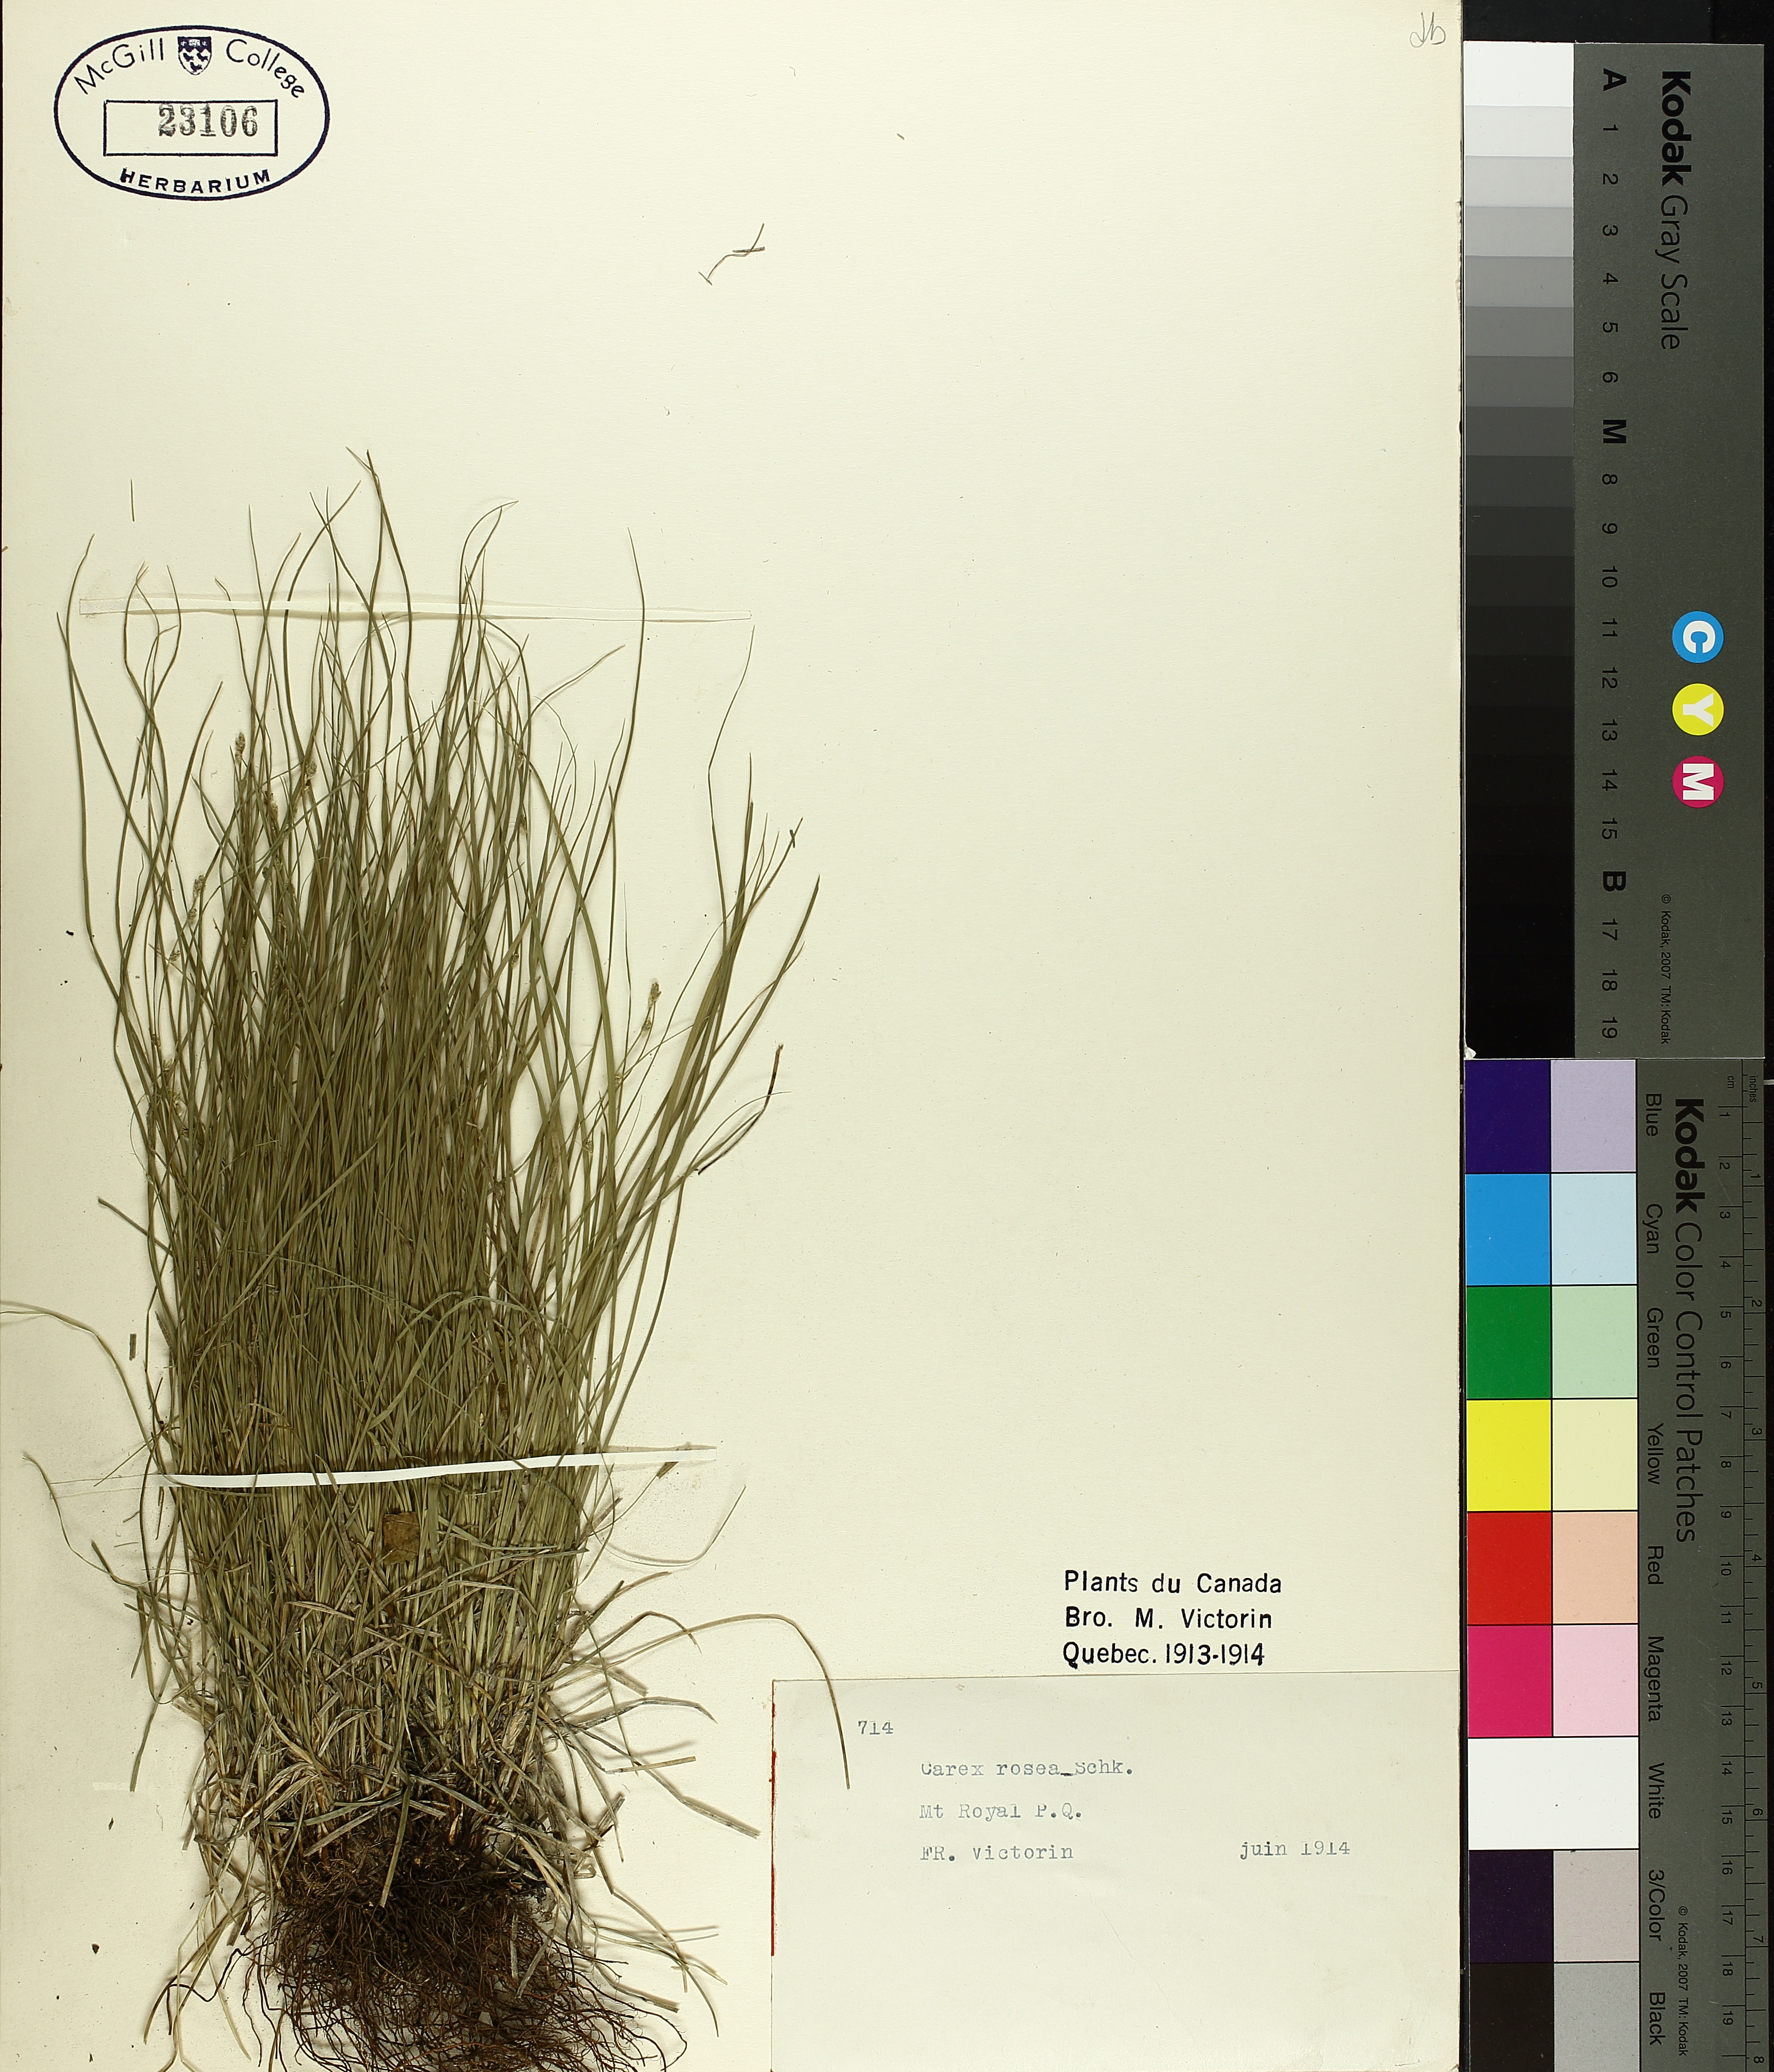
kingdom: Plantae
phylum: Tracheophyta
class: Liliopsida
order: Poales
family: Cyperaceae
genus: Carex
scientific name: Carex rosea
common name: Curly-styled wood sedge
